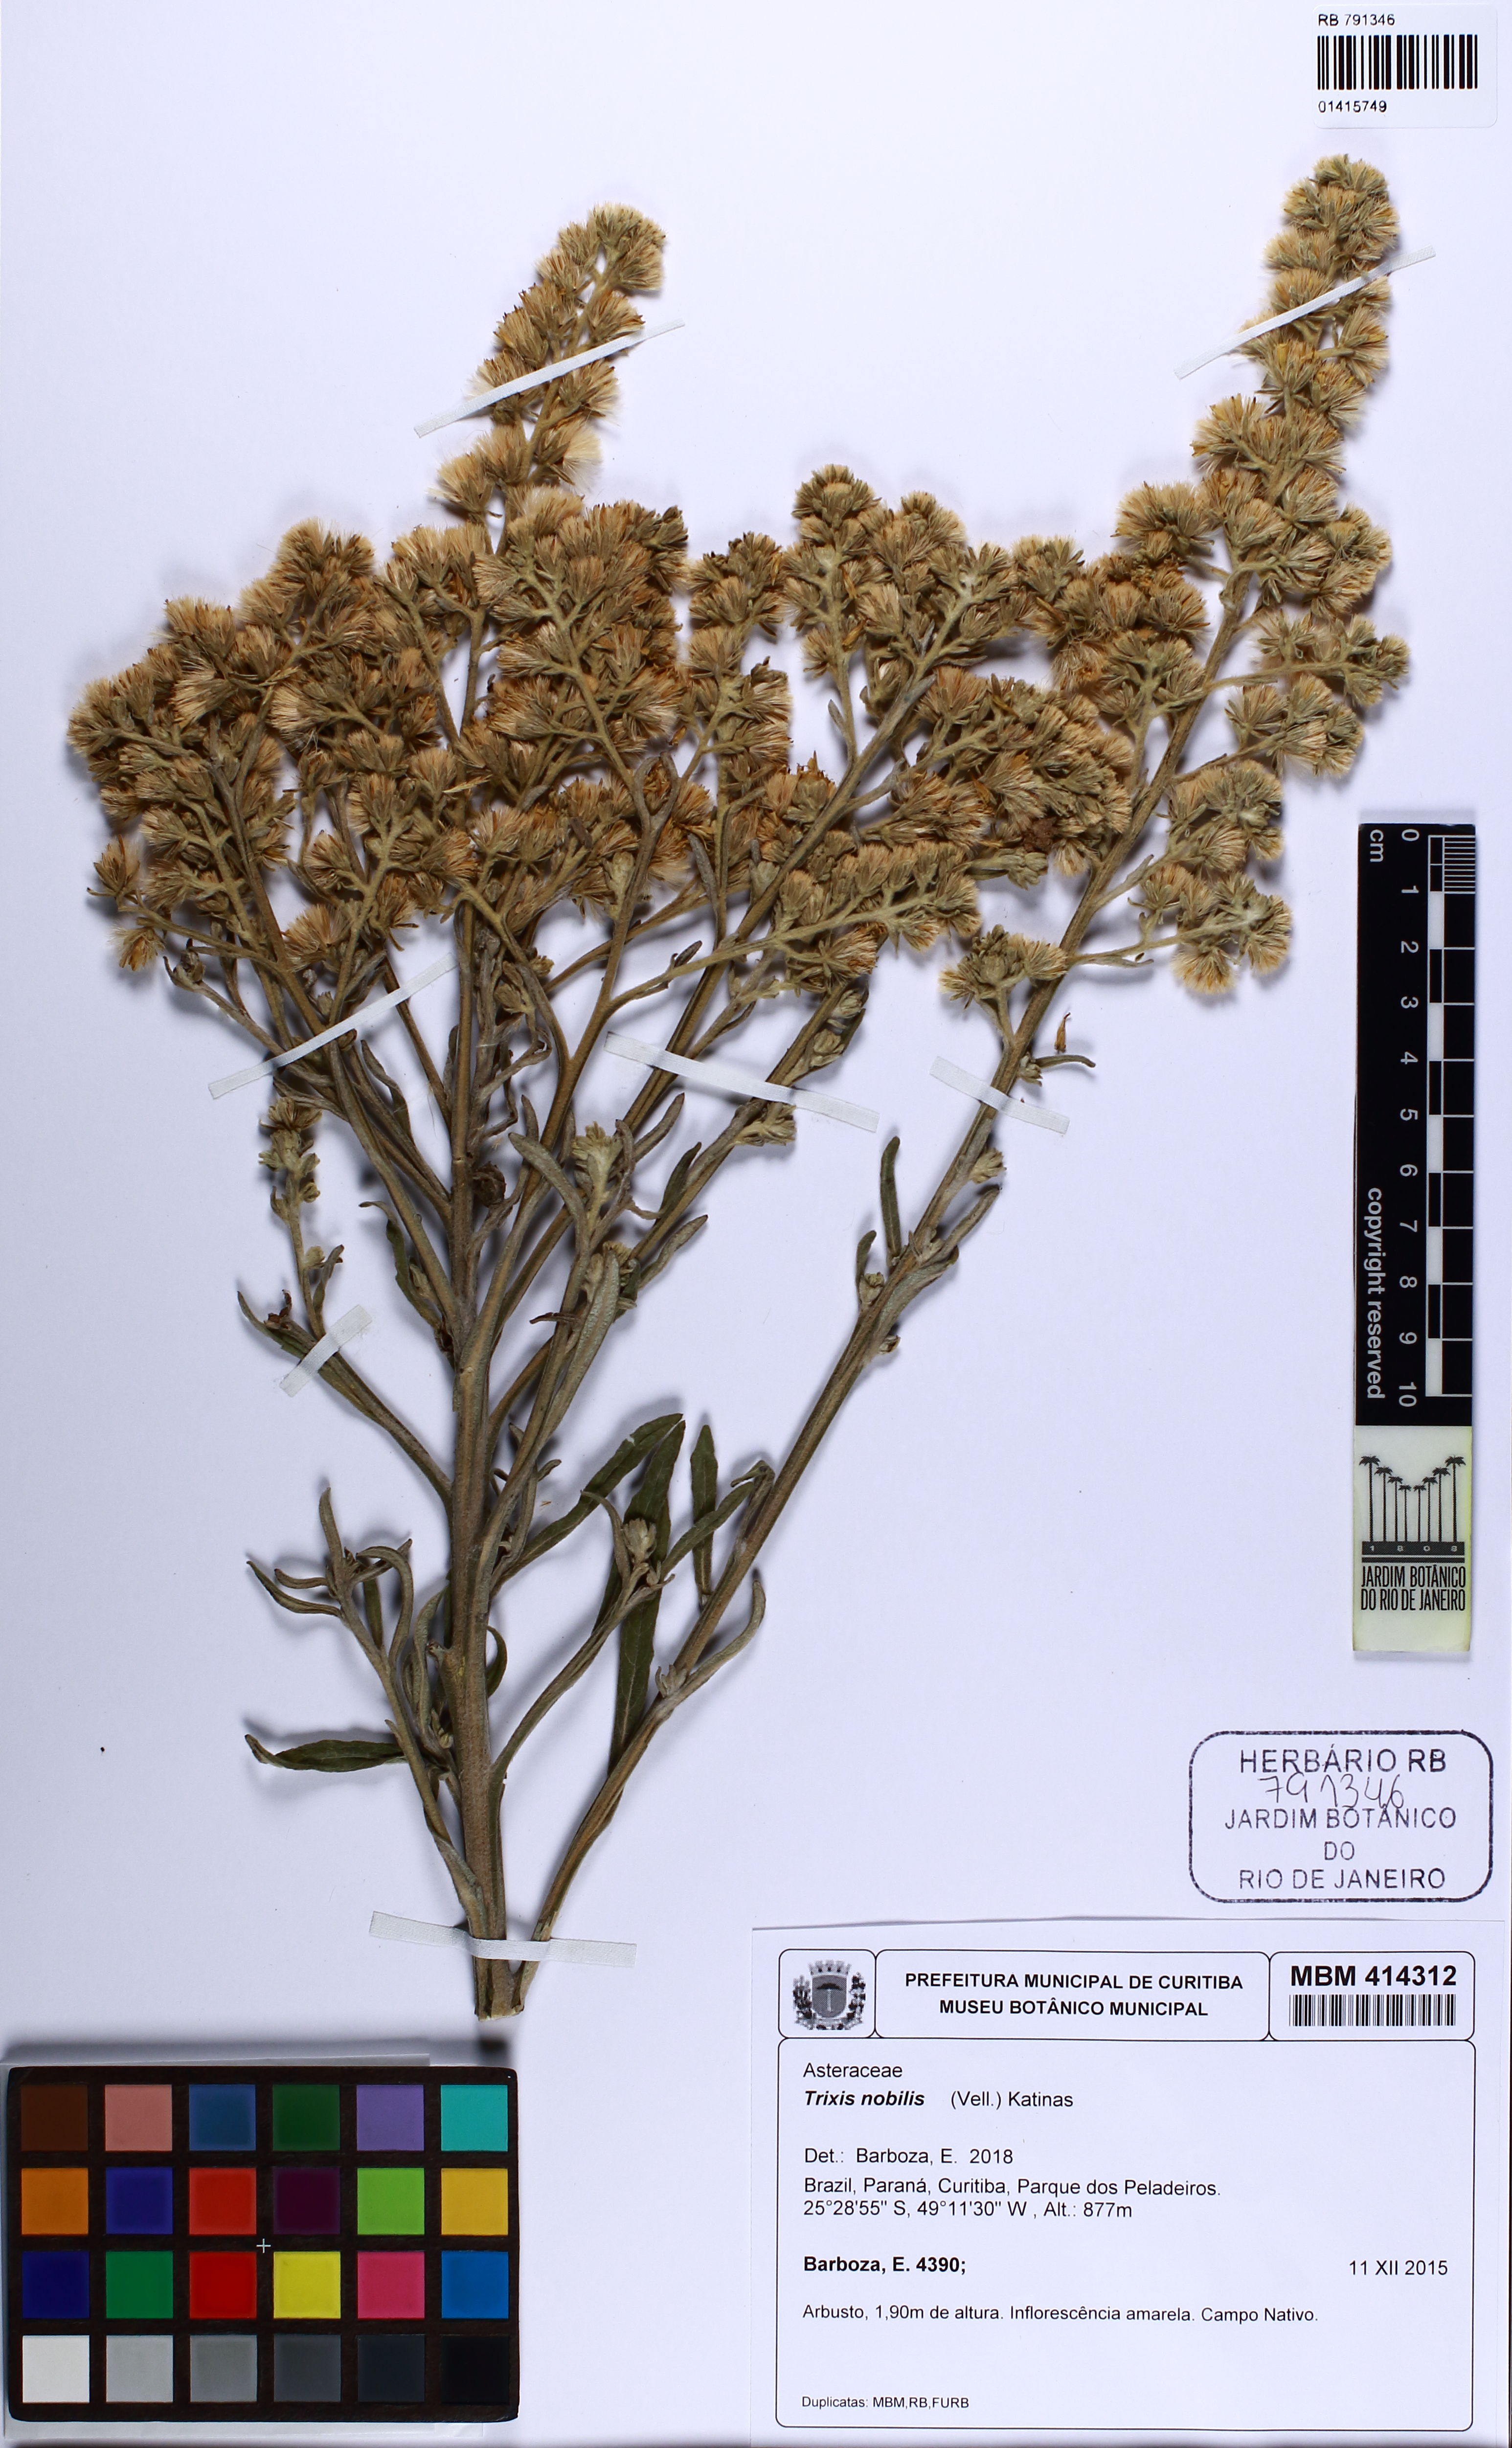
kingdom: Plantae
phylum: Tracheophyta
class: Magnoliopsida
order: Asterales
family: Asteraceae
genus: Trixis
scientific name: Trixis nobilis
